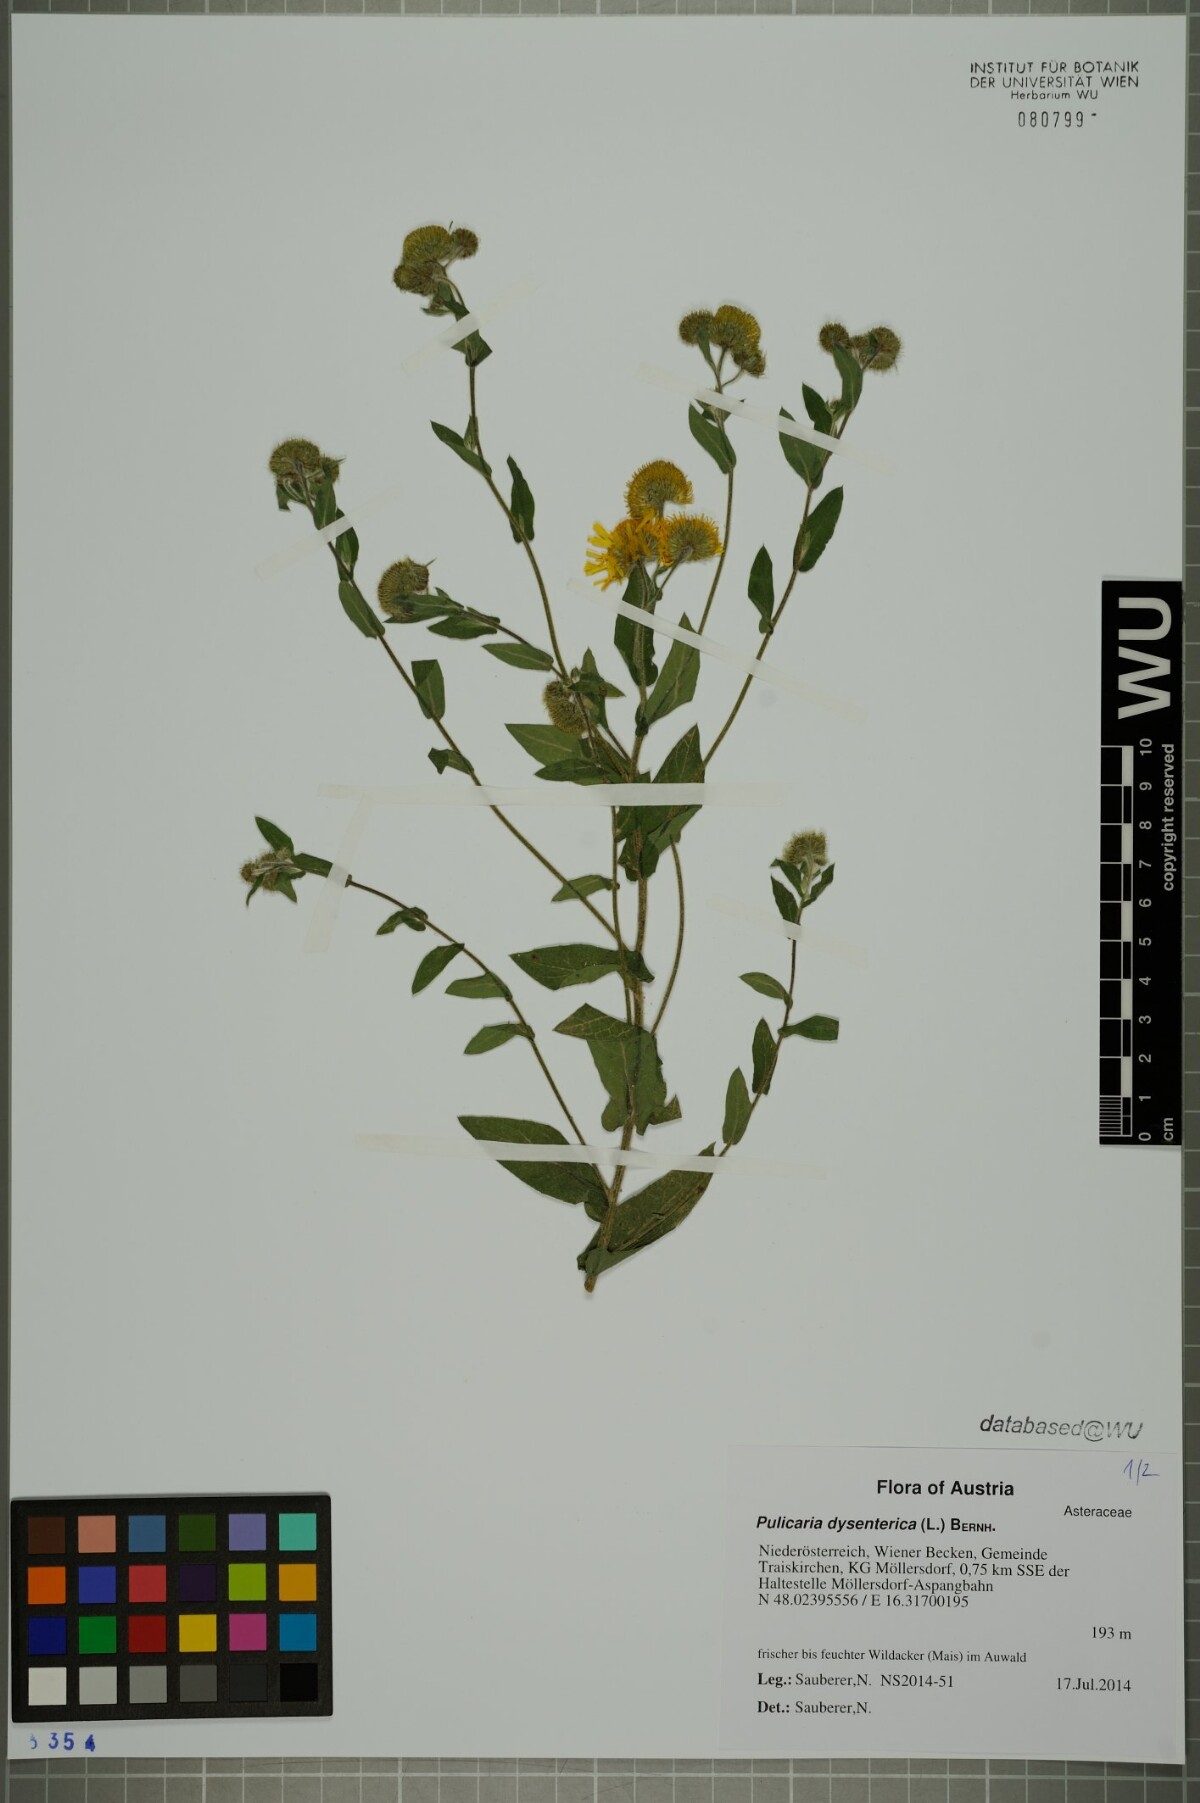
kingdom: Plantae
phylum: Tracheophyta
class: Magnoliopsida
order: Asterales
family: Asteraceae
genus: Pulicaria
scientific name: Pulicaria dysenterica
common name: Common fleabane
